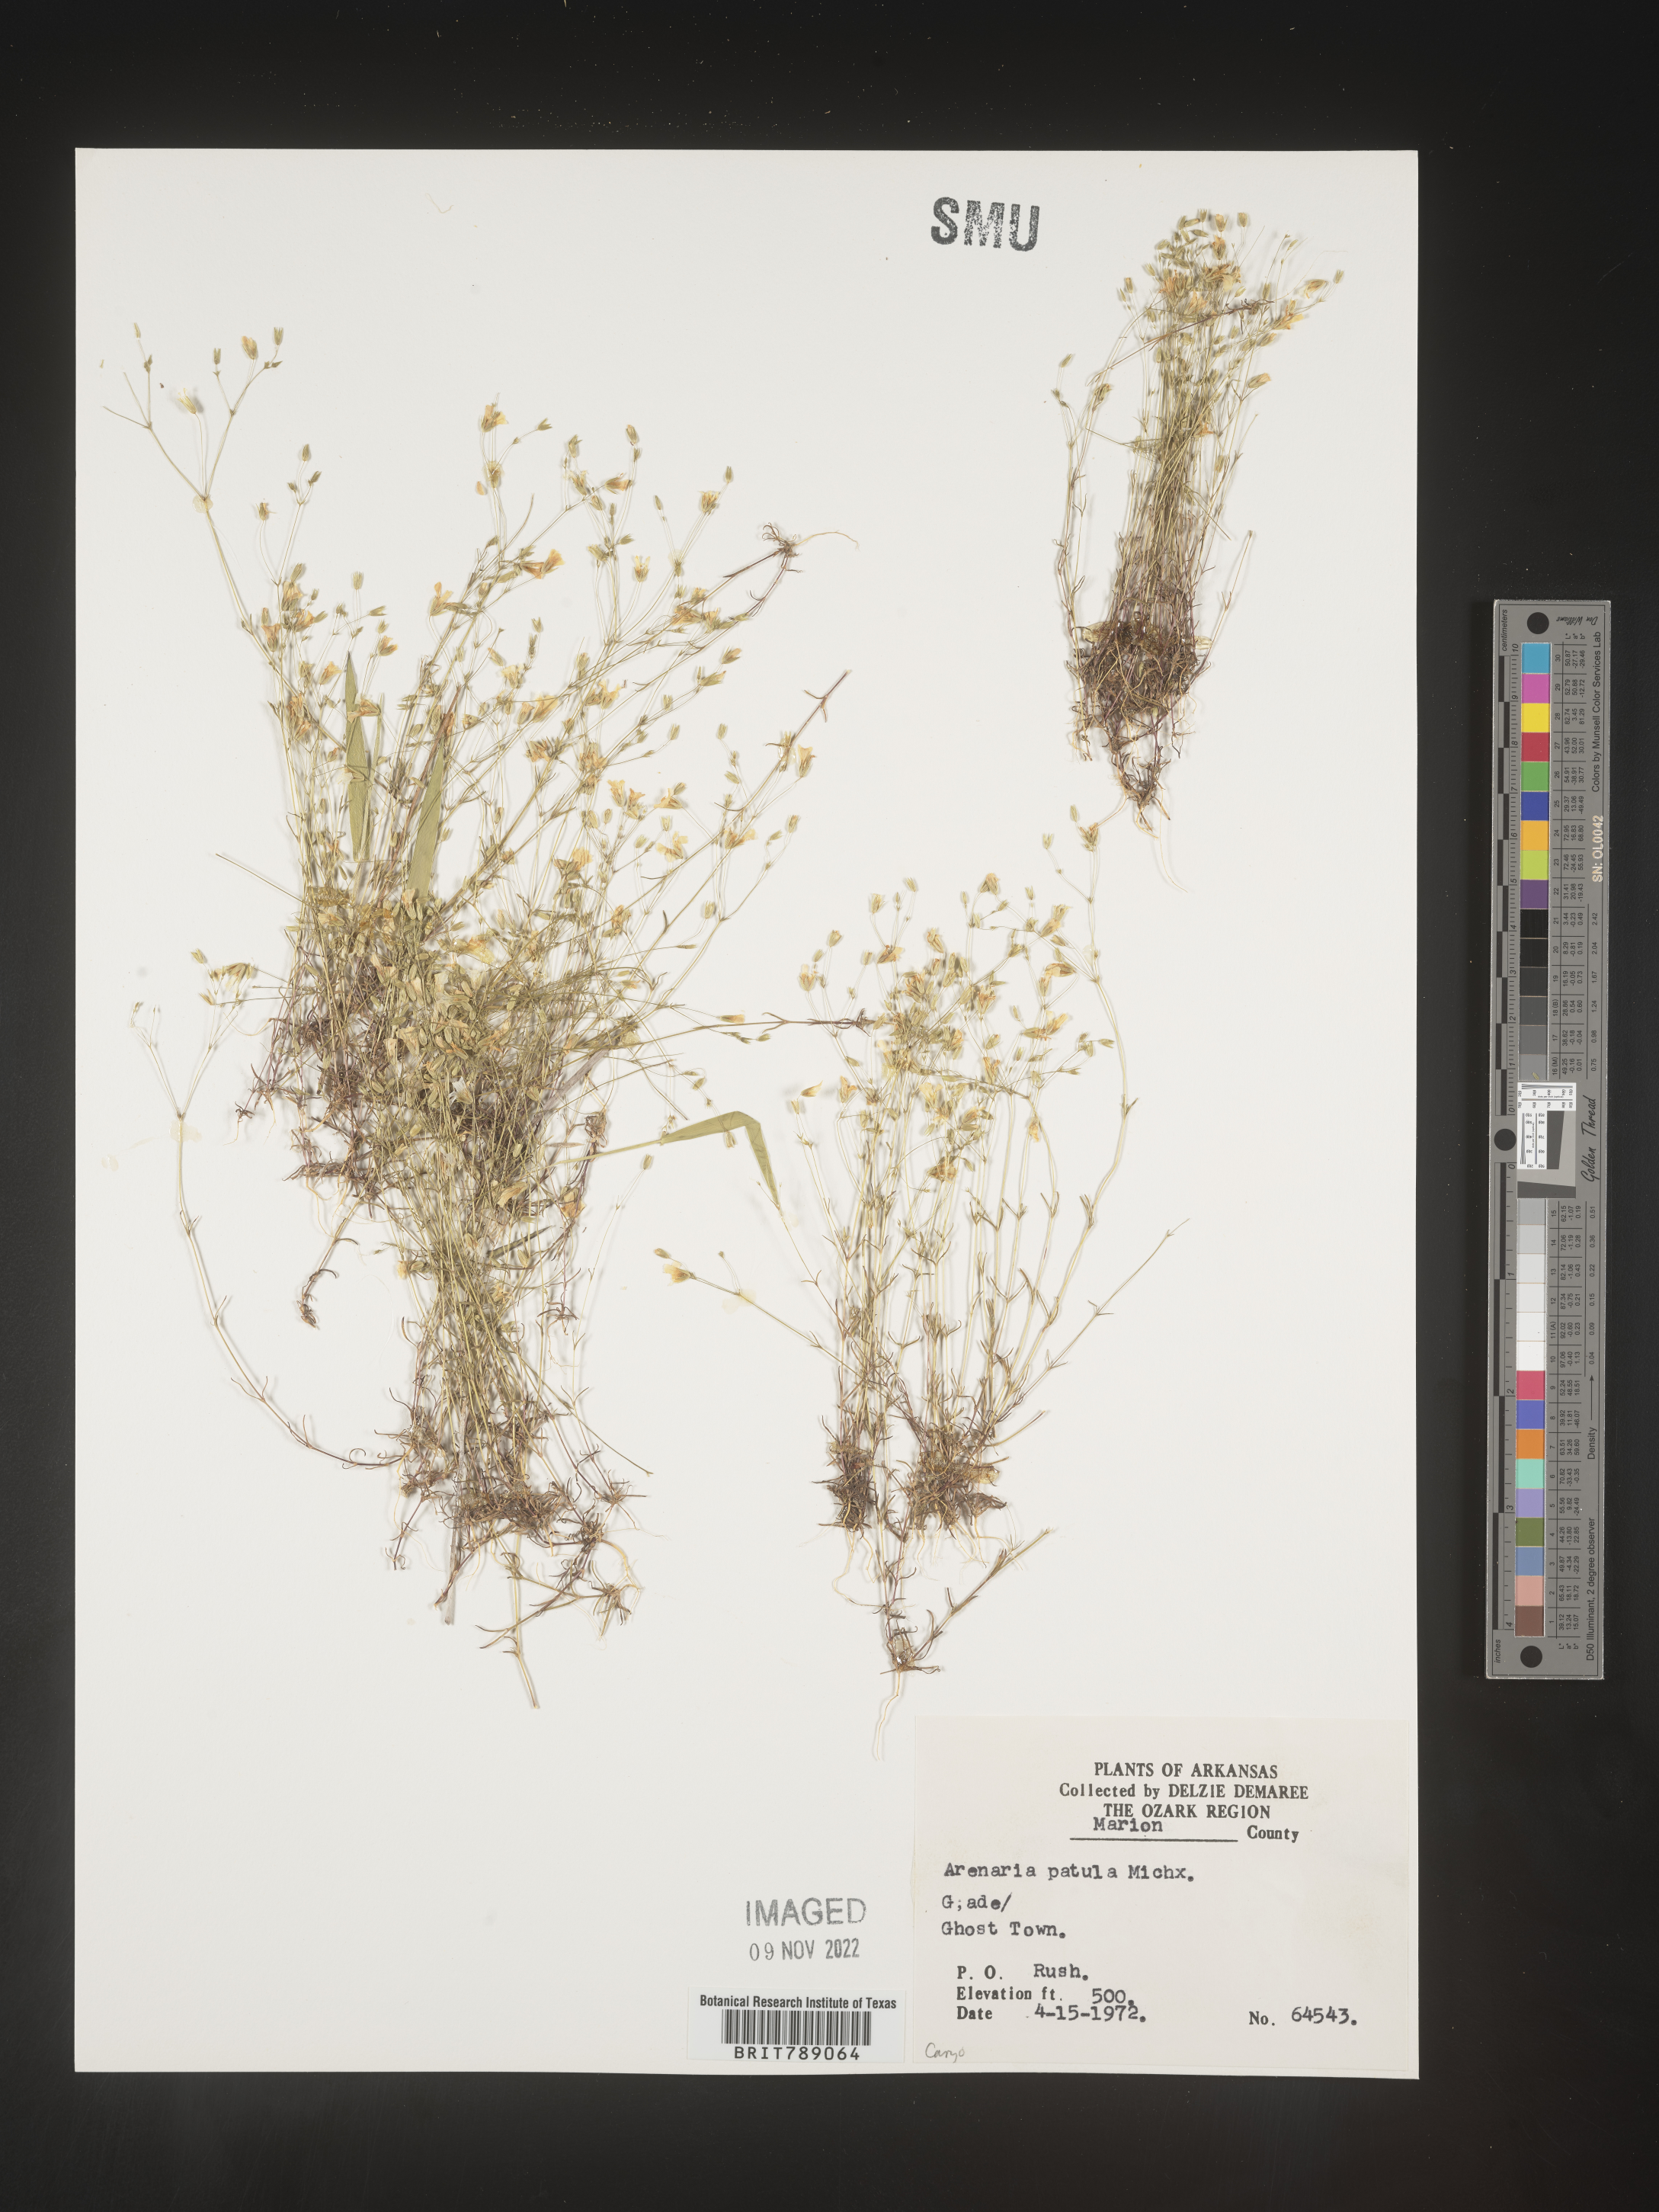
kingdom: Plantae
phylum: Tracheophyta
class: Magnoliopsida
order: Caryophyllales
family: Caryophyllaceae
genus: Mononeuria
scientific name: Mononeuria patula
